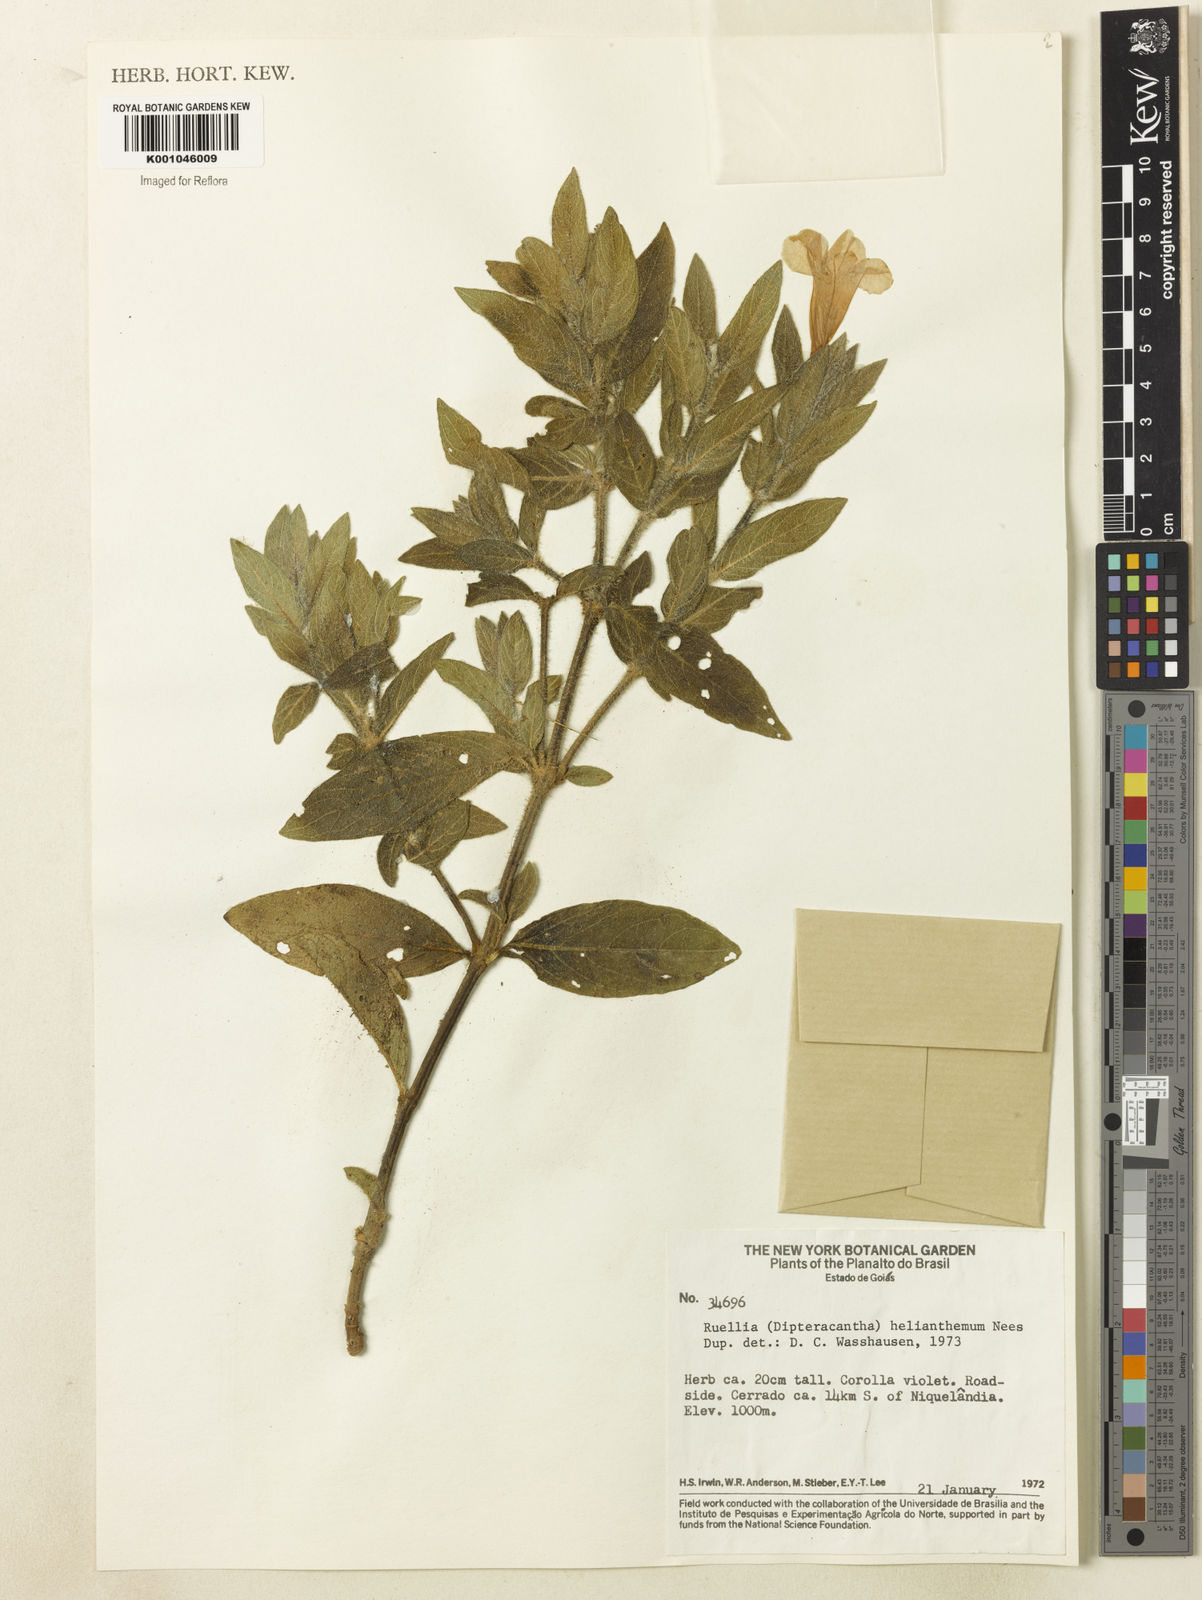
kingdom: Plantae
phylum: Tracheophyta
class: Magnoliopsida
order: Lamiales
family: Acanthaceae
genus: Ruellia
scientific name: Ruellia helianthema
